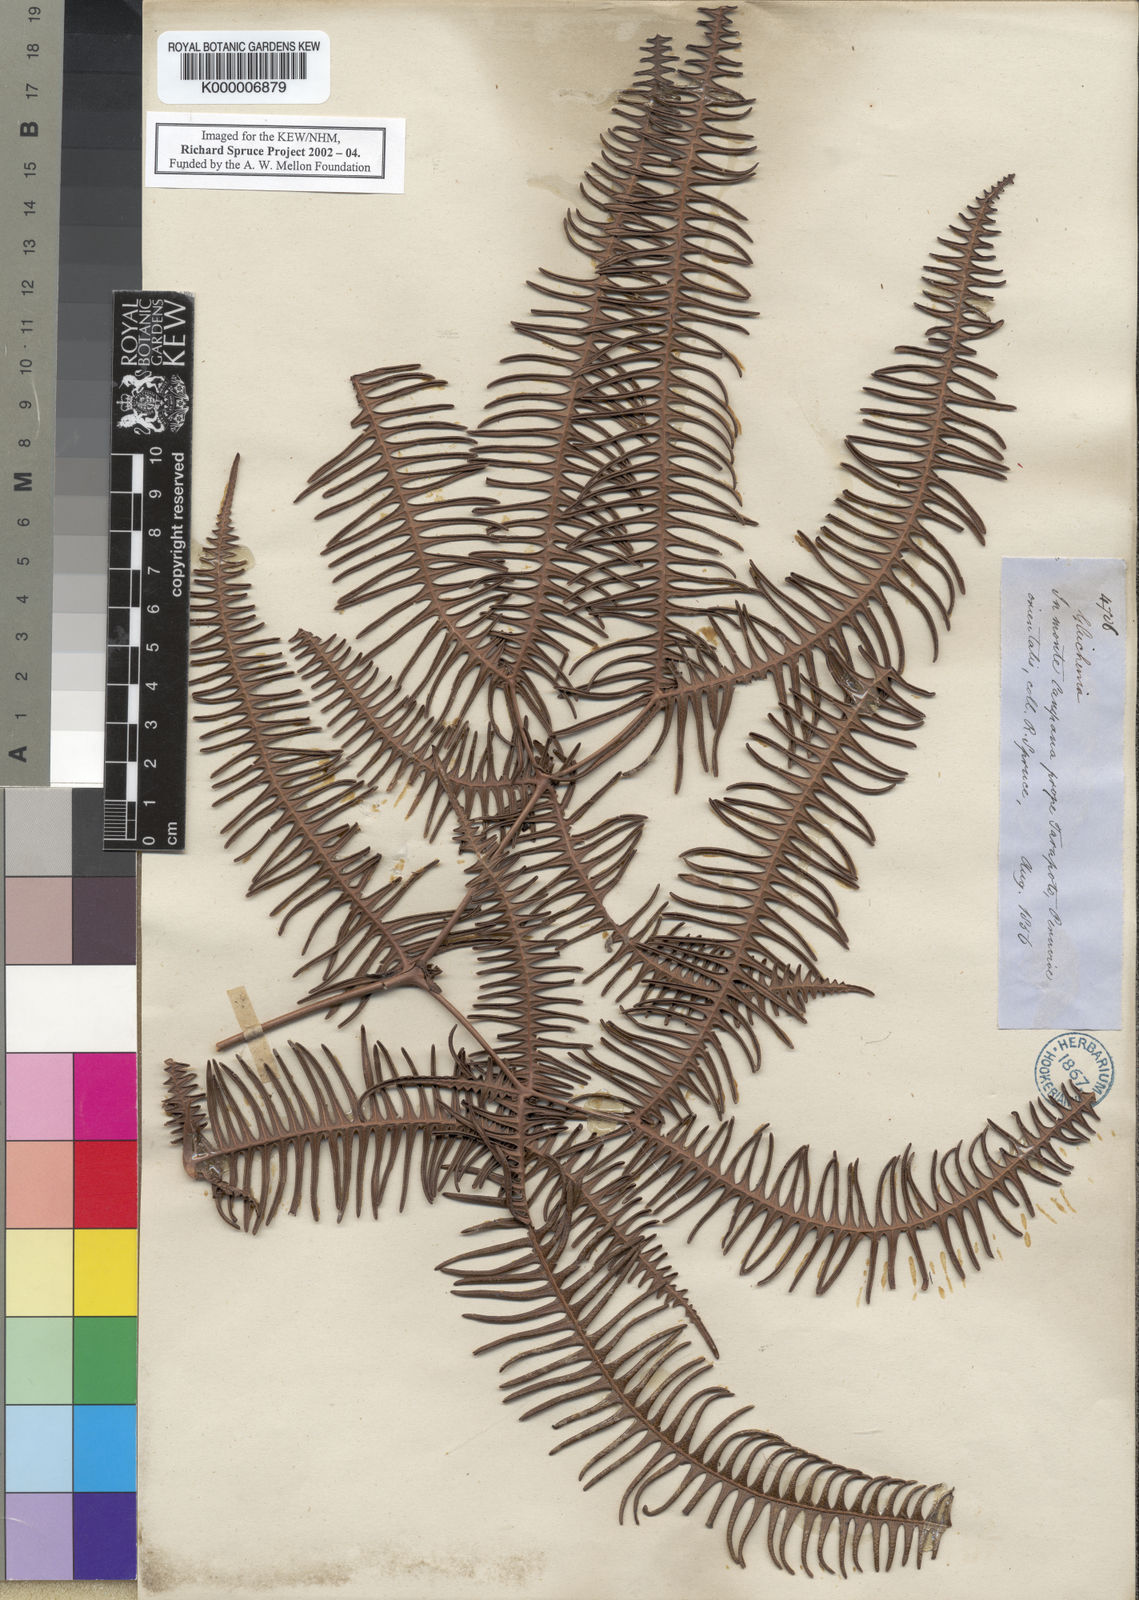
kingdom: Plantae
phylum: Tracheophyta
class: Polypodiopsida
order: Gleicheniales
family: Gleicheniaceae
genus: Dicranopteris
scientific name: Dicranopteris linearis
